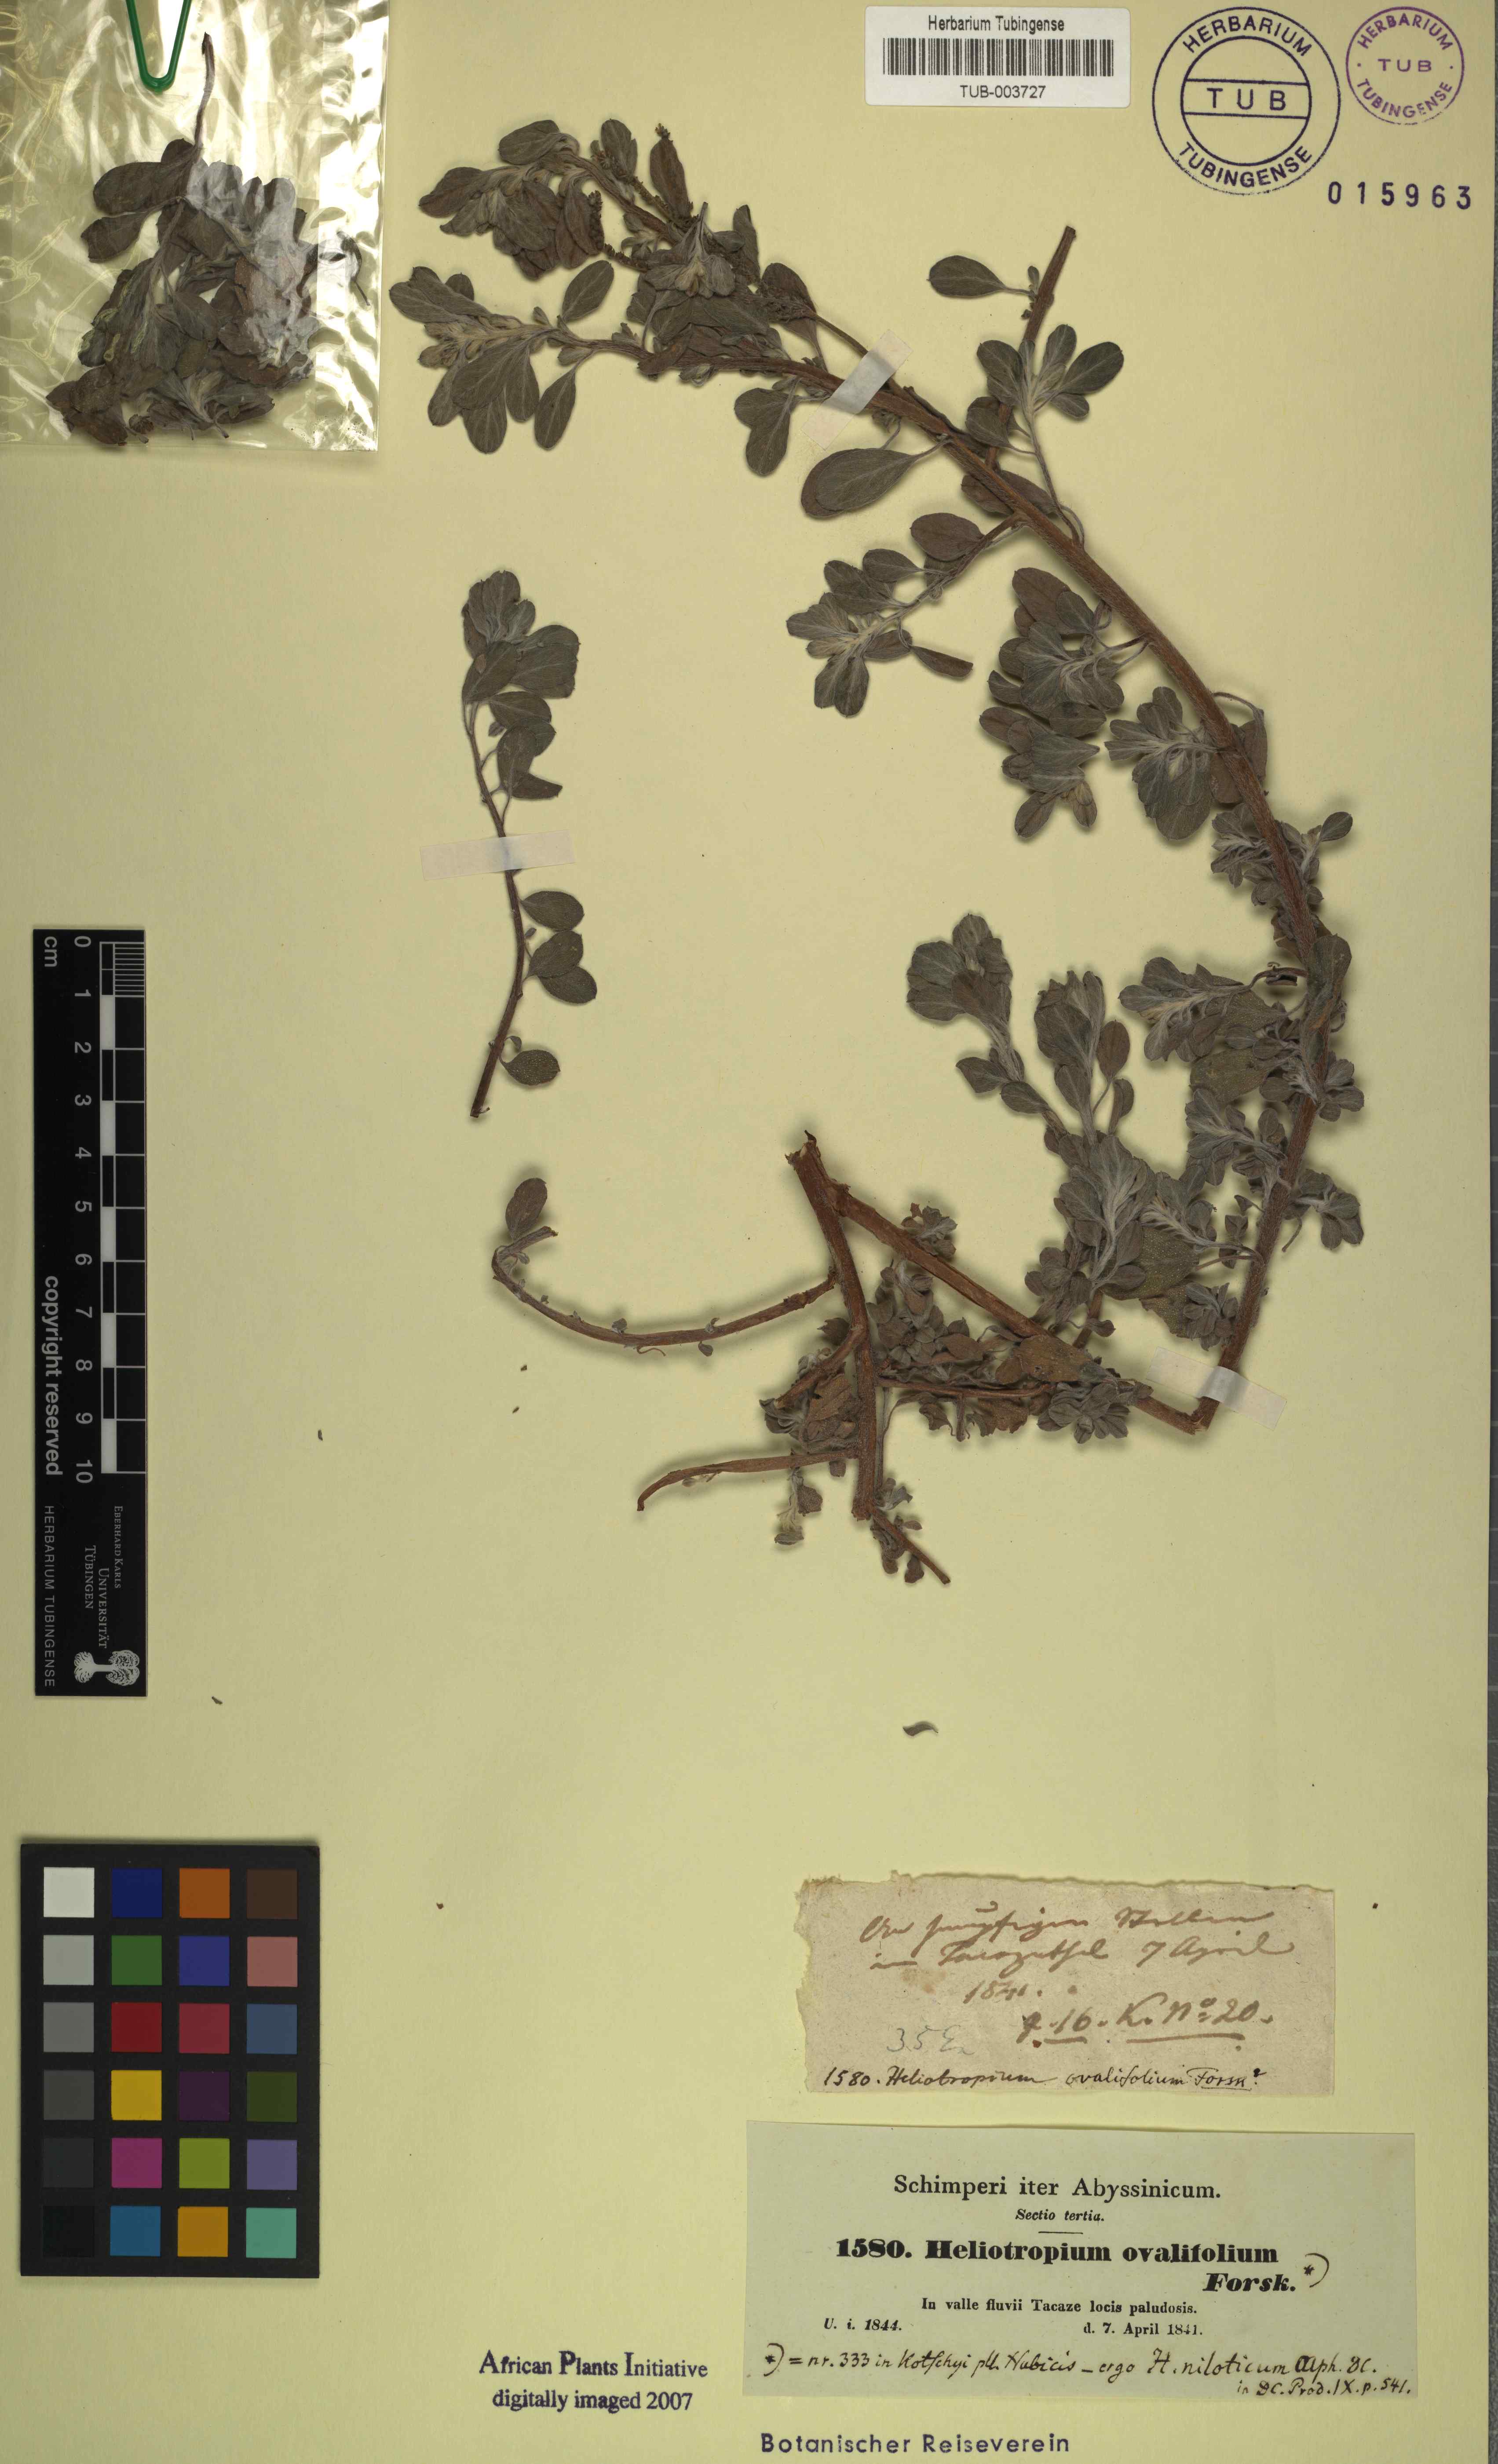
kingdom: Plantae
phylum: Tracheophyta
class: Magnoliopsida
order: Boraginales
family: Heliotropiaceae
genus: Euploca
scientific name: Euploca ovalifolia
